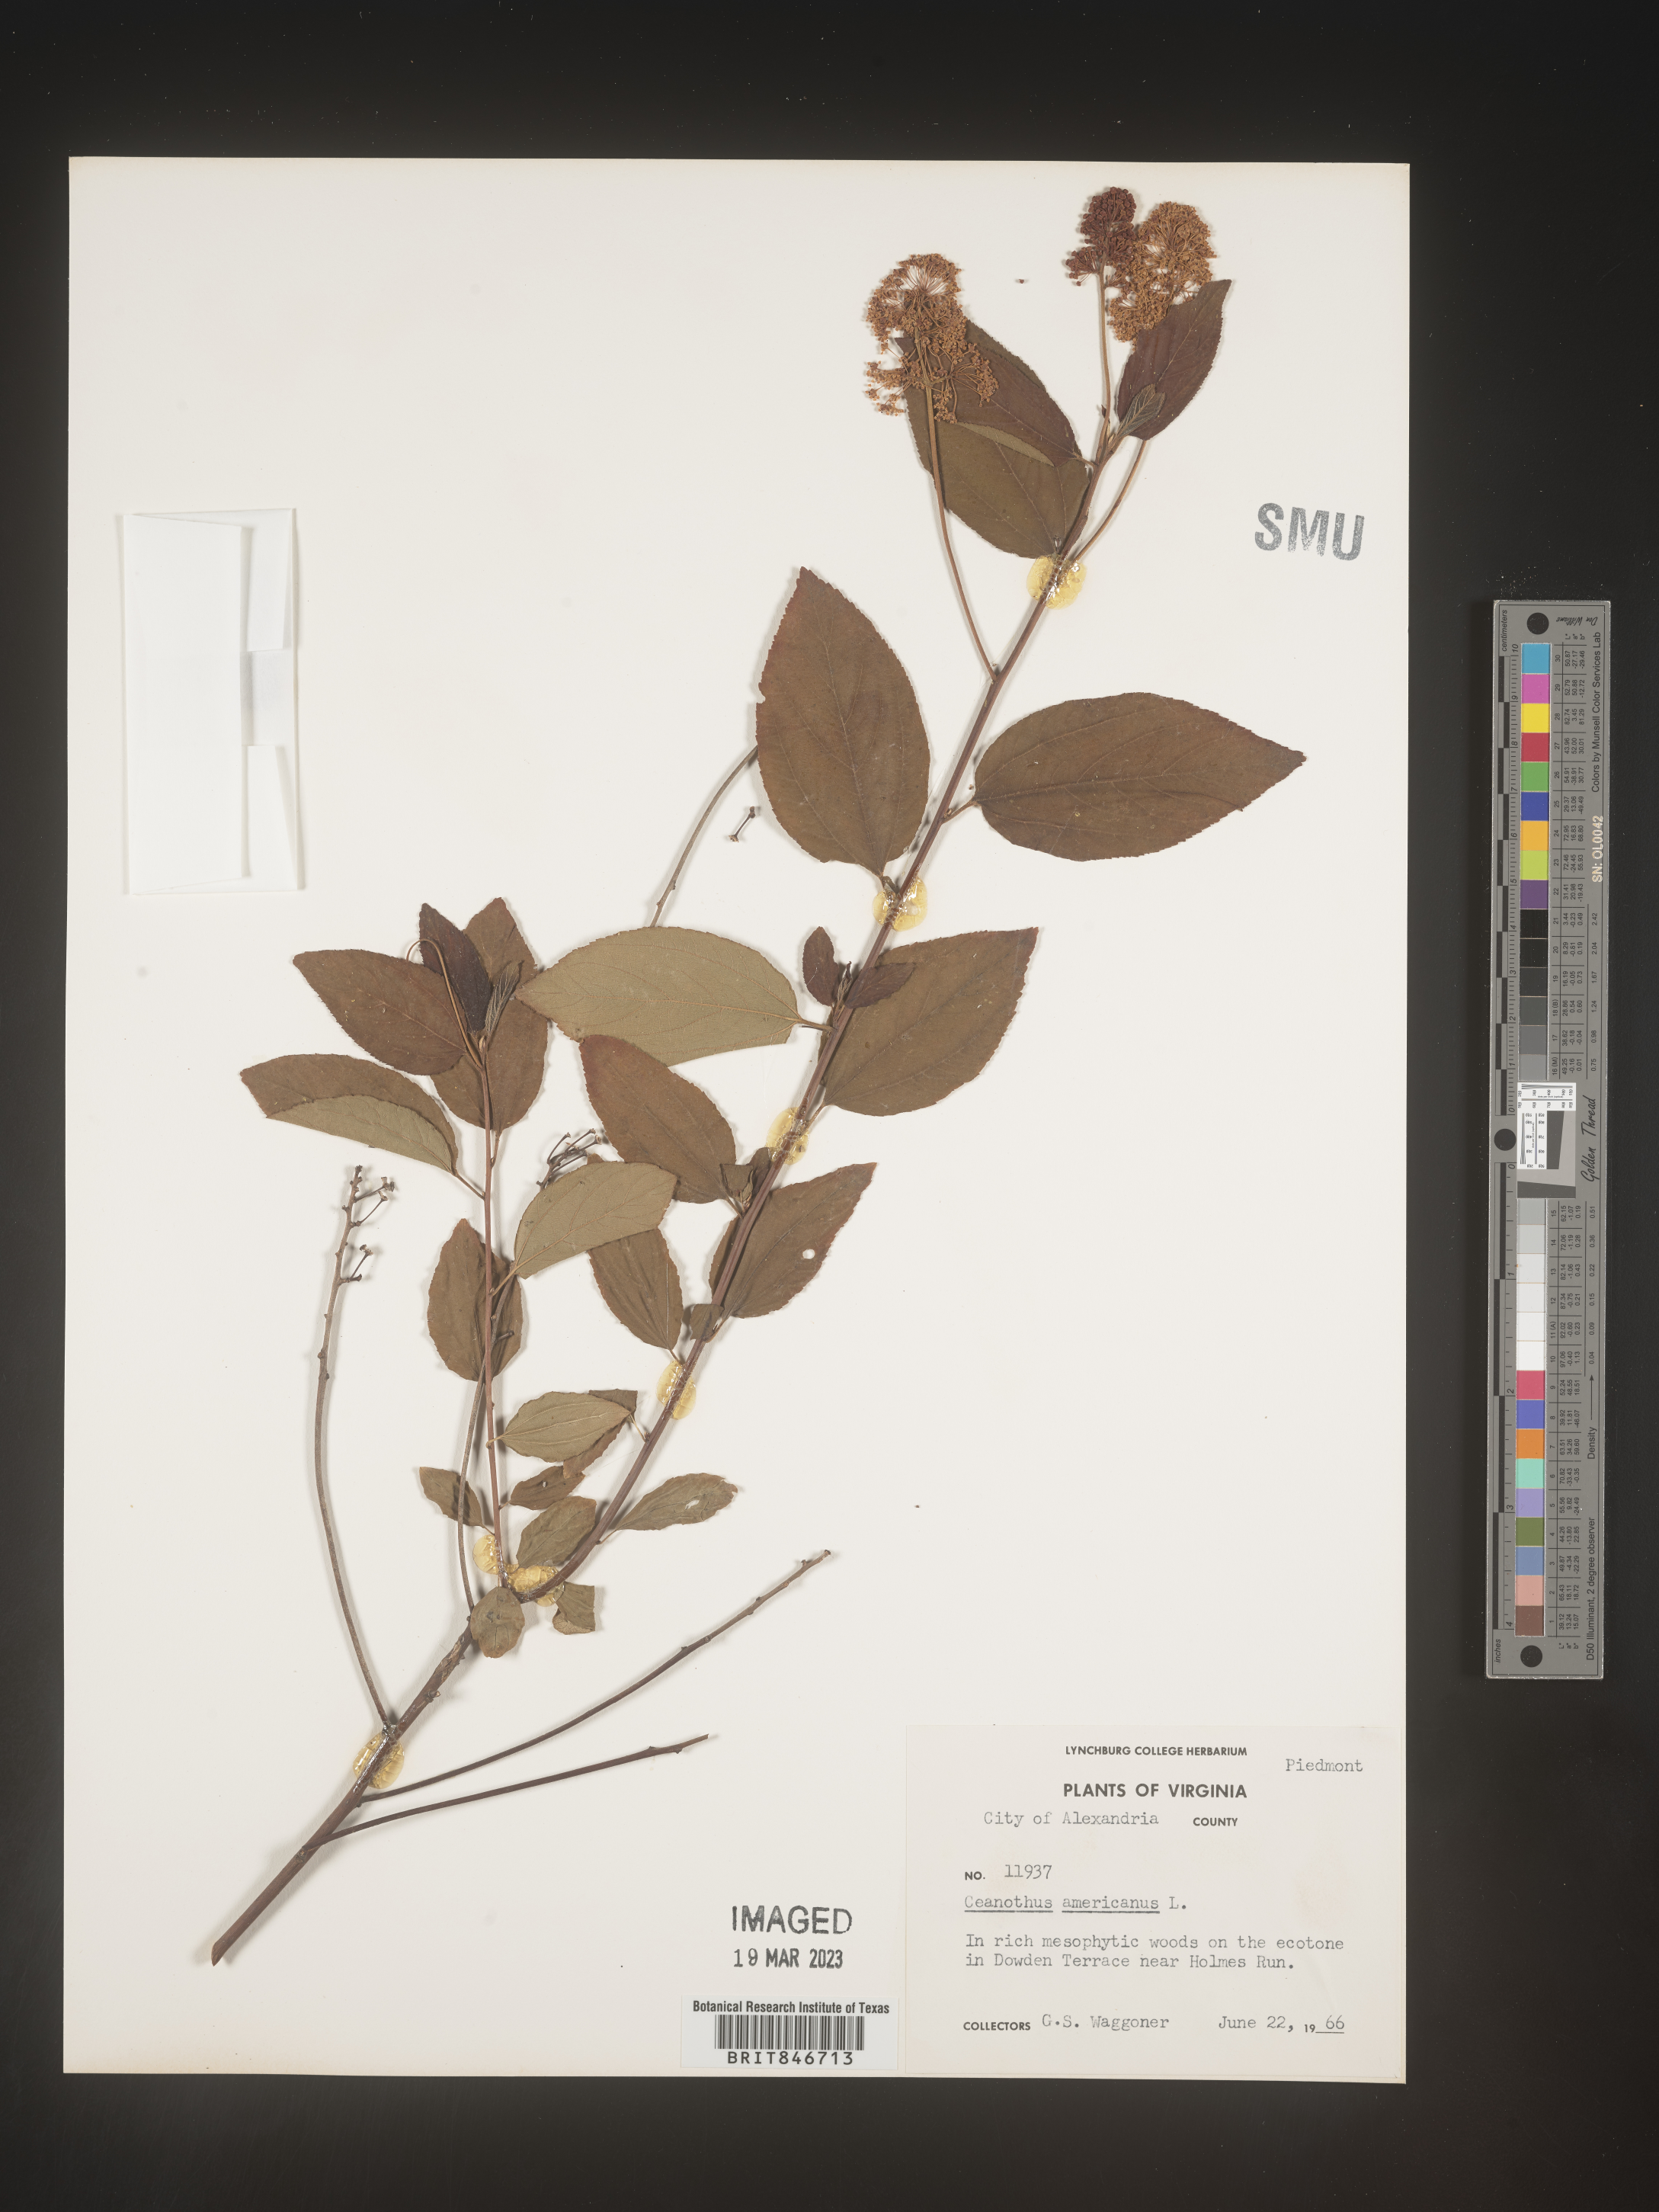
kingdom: Plantae
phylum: Tracheophyta
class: Magnoliopsida
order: Rosales
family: Rhamnaceae
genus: Ceanothus
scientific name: Ceanothus americanus
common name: Redroot
